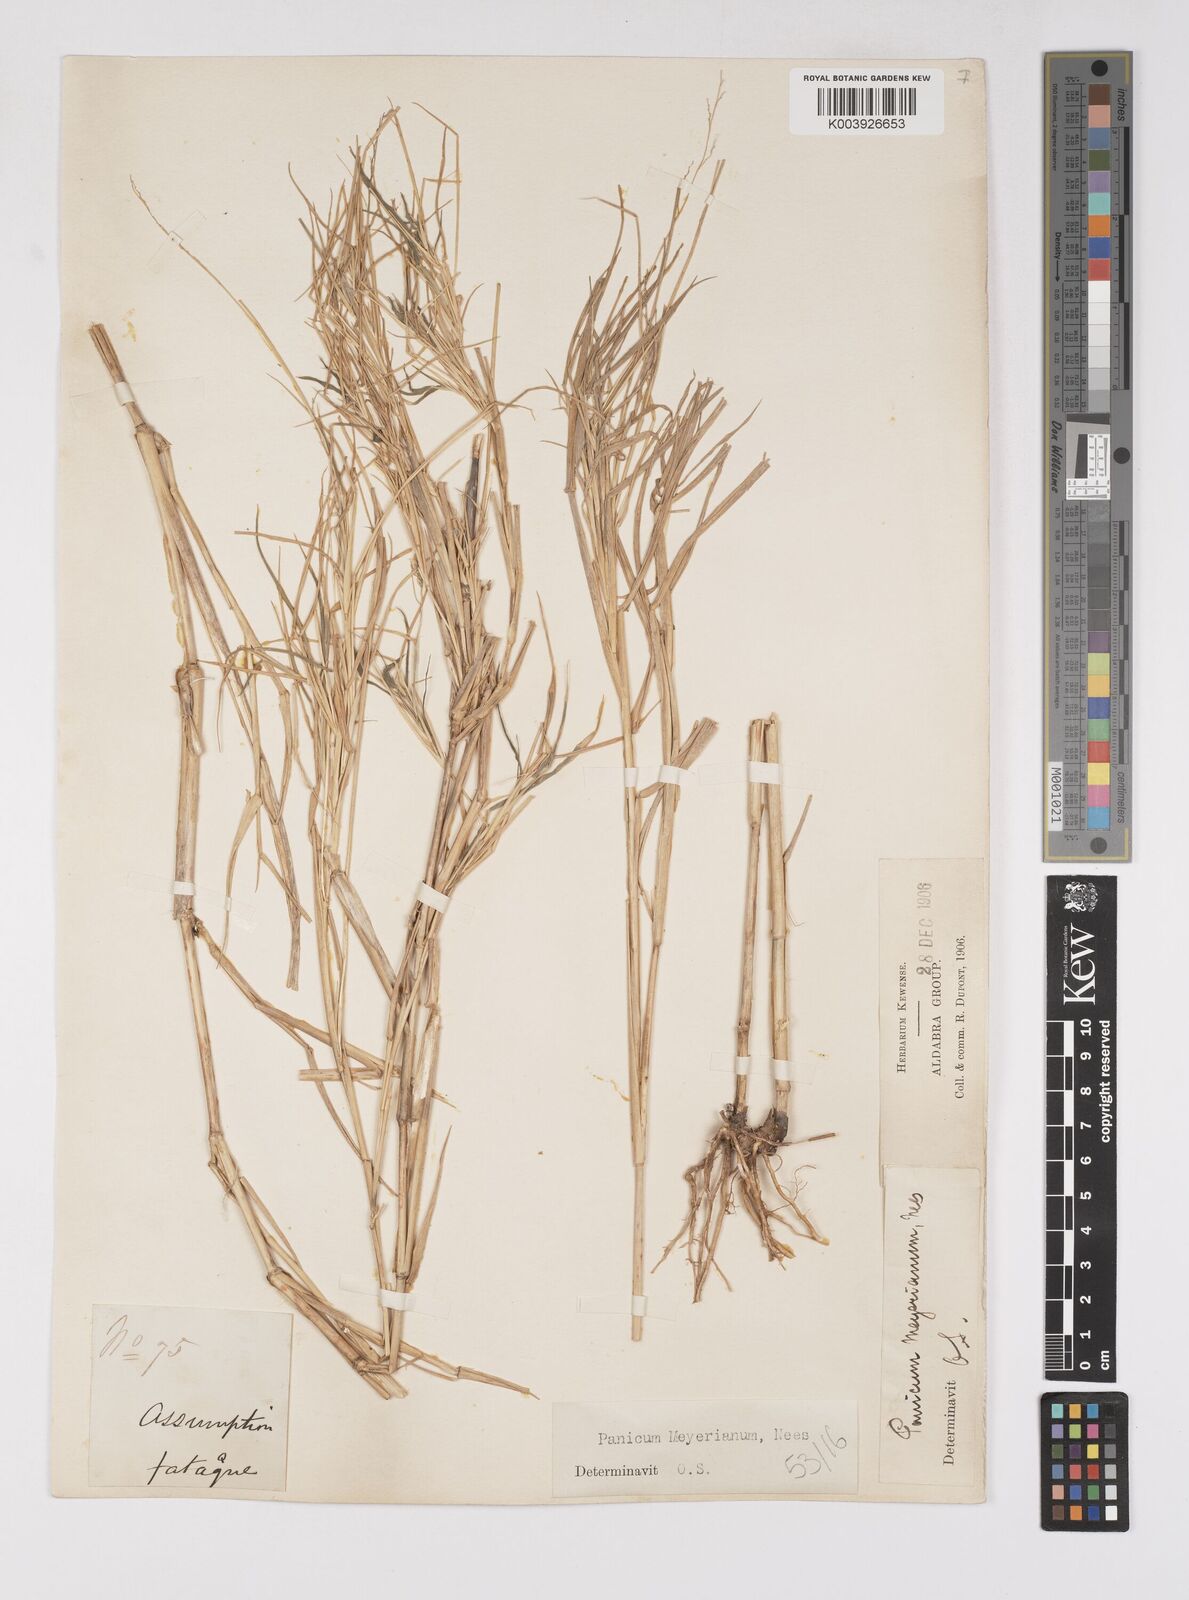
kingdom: Plantae
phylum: Tracheophyta
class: Liliopsida
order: Poales
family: Poaceae
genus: Eriochloa
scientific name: Eriochloa meyeriana
